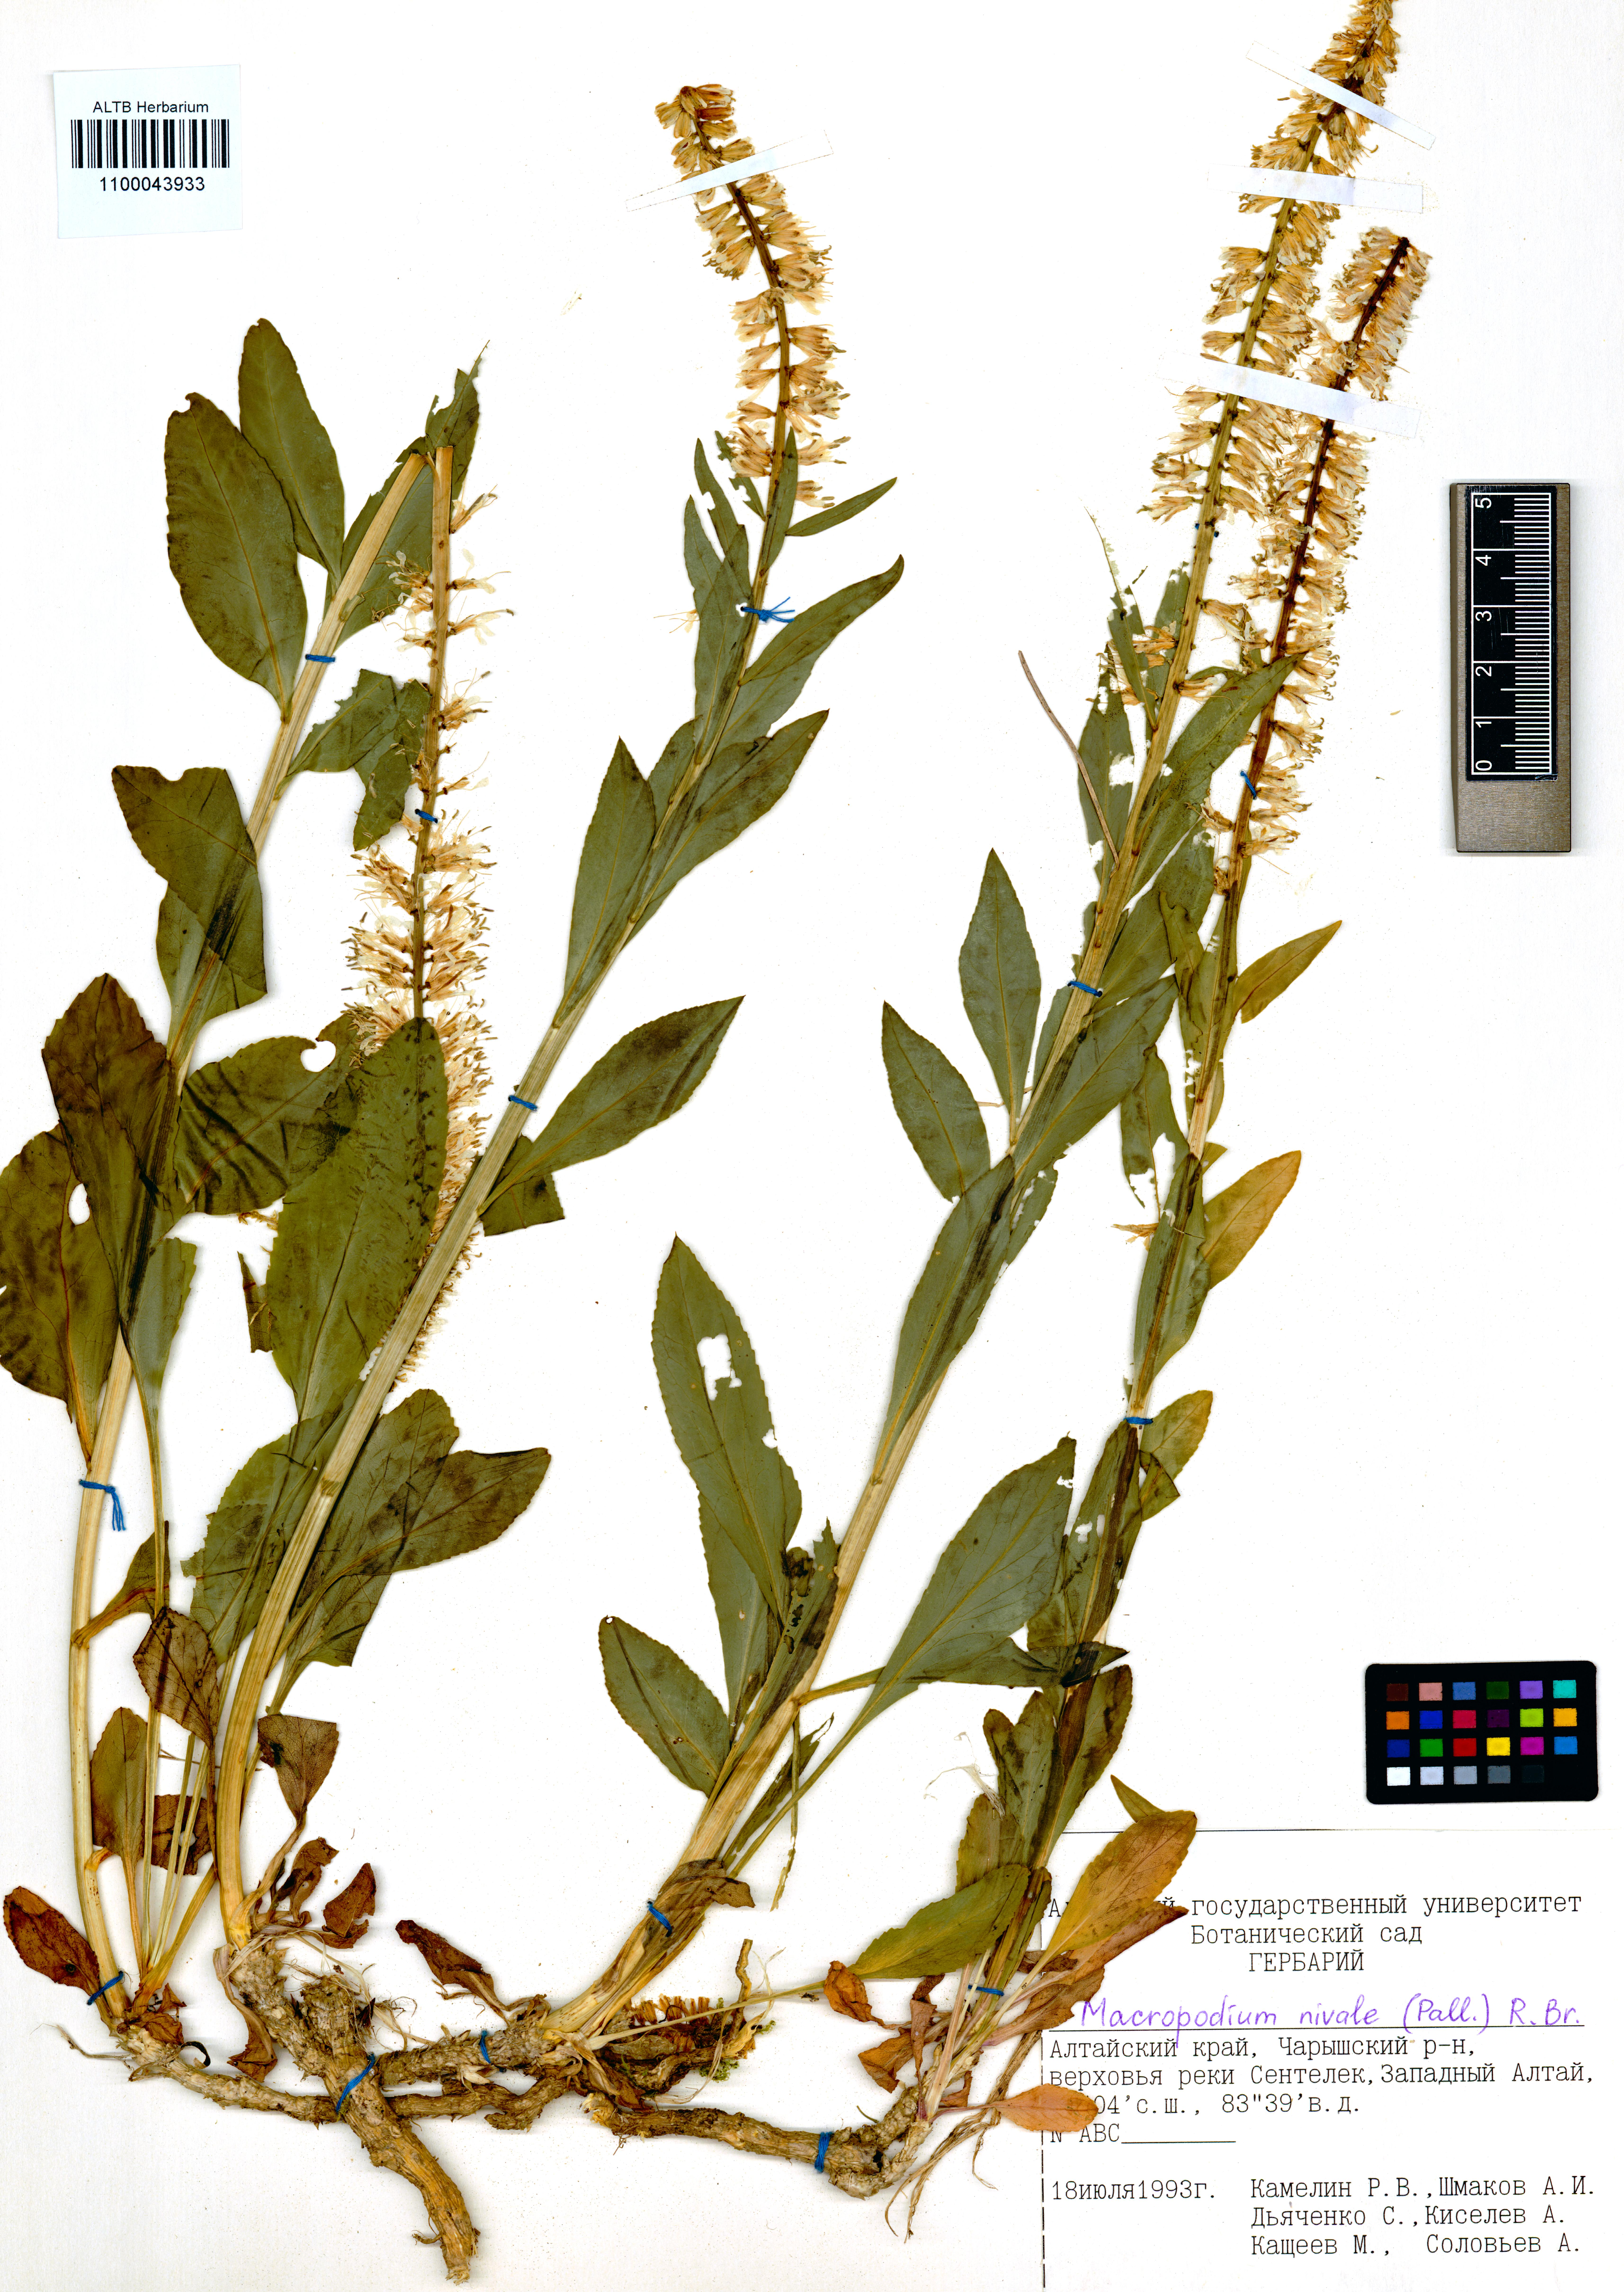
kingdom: Plantae
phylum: Tracheophyta
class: Magnoliopsida
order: Brassicales
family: Brassicaceae
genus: Macropodium
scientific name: Macropodium nivale
